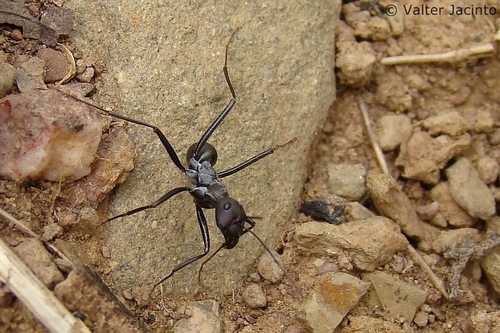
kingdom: Animalia
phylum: Arthropoda
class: Insecta
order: Hymenoptera
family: Formicidae
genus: Cataglyphis
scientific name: Cataglyphis viaticus
